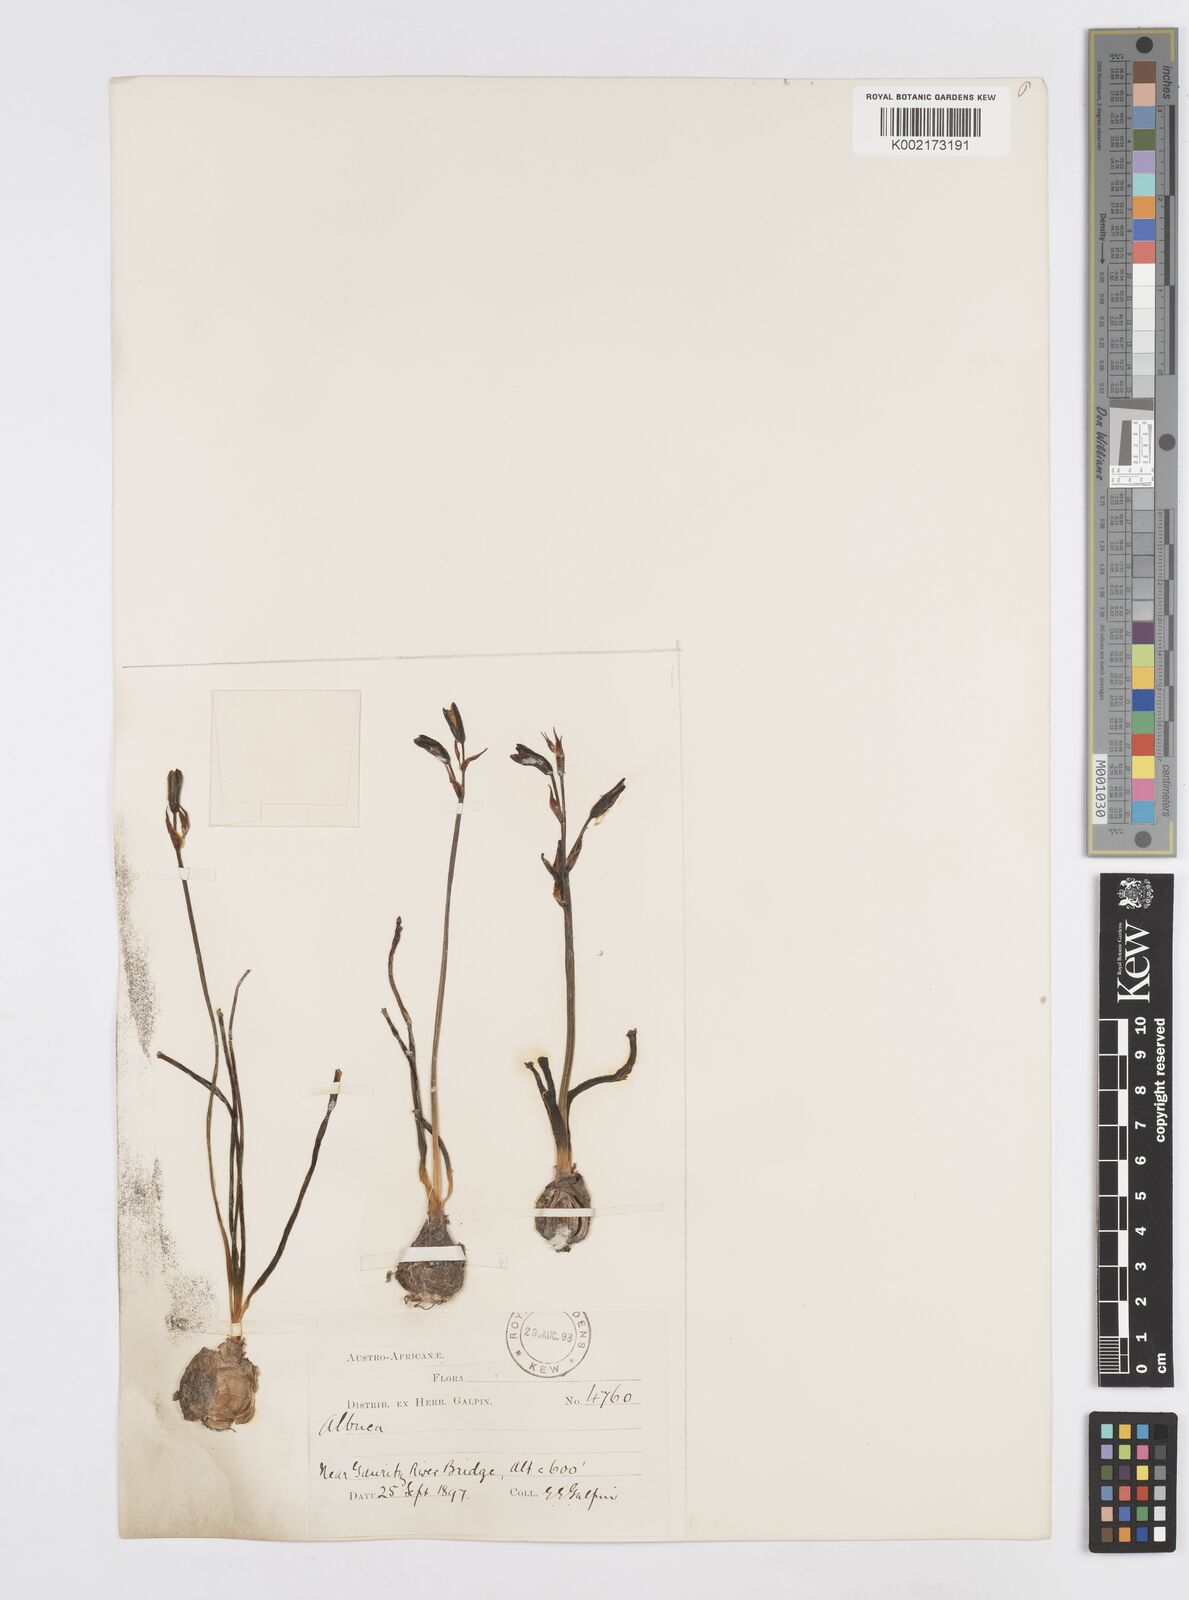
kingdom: Plantae
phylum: Tracheophyta
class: Liliopsida
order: Asparagales
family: Asparagaceae
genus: Albuca
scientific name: Albuca
